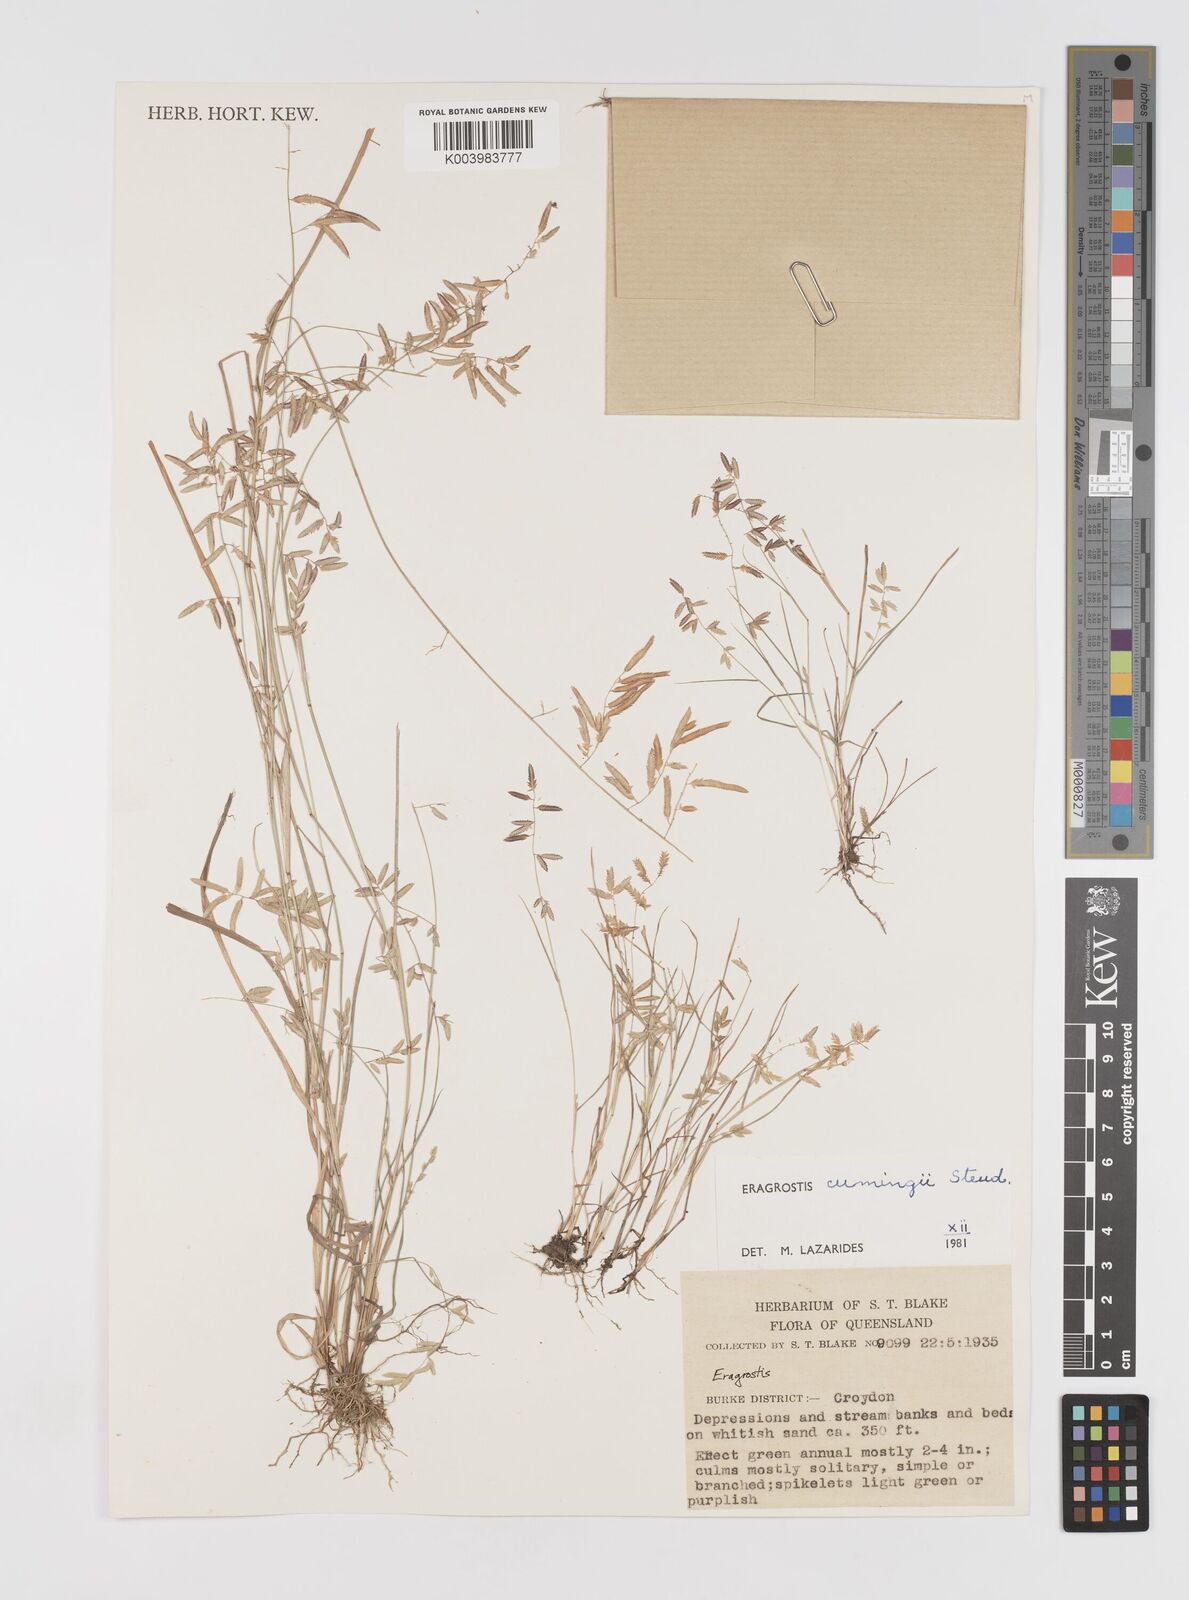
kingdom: Plantae
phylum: Tracheophyta
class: Liliopsida
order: Poales
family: Poaceae
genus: Eragrostis
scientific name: Eragrostis cumingii
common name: Cuming's lovegrass
